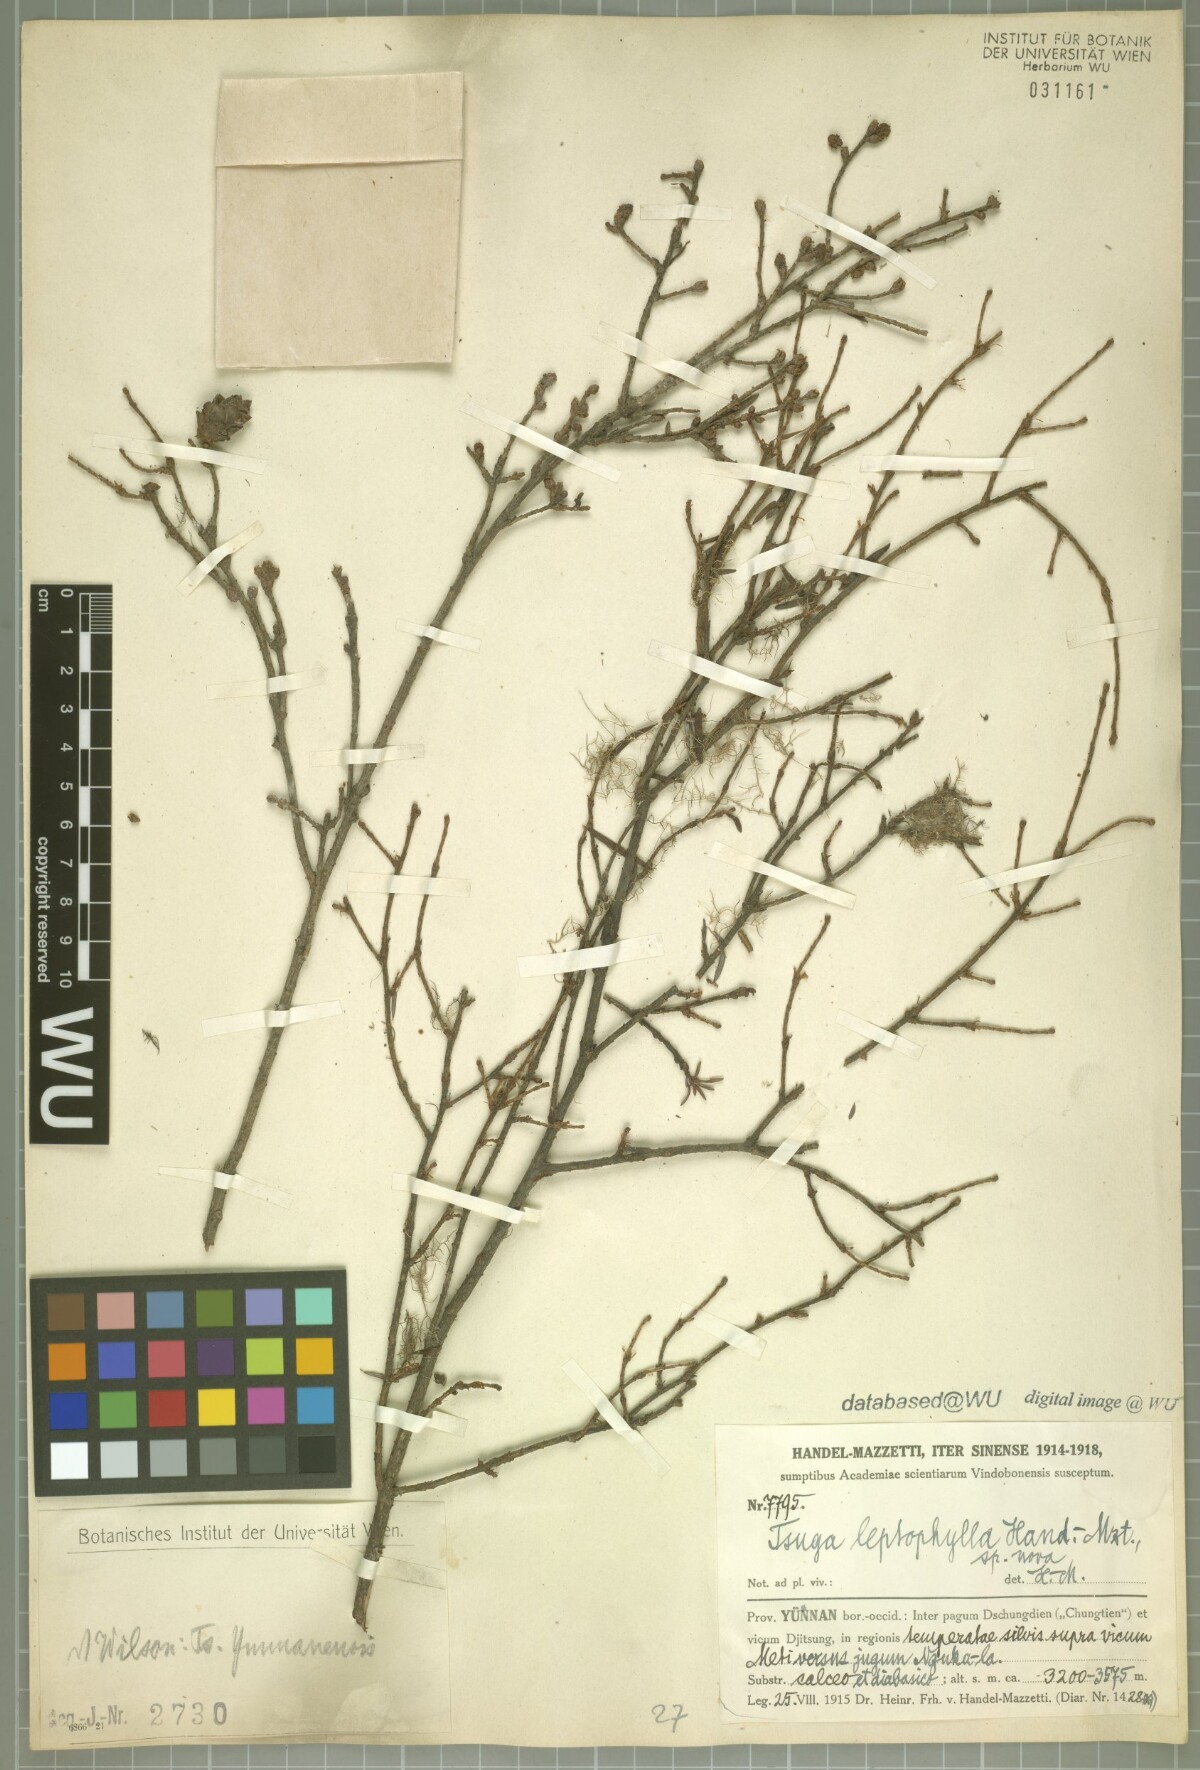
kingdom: Plantae
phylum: Tracheophyta
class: Pinopsida
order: Pinales
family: Pinaceae
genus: Tsuga
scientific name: Tsuga dumosa
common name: Himalayan hemlock
